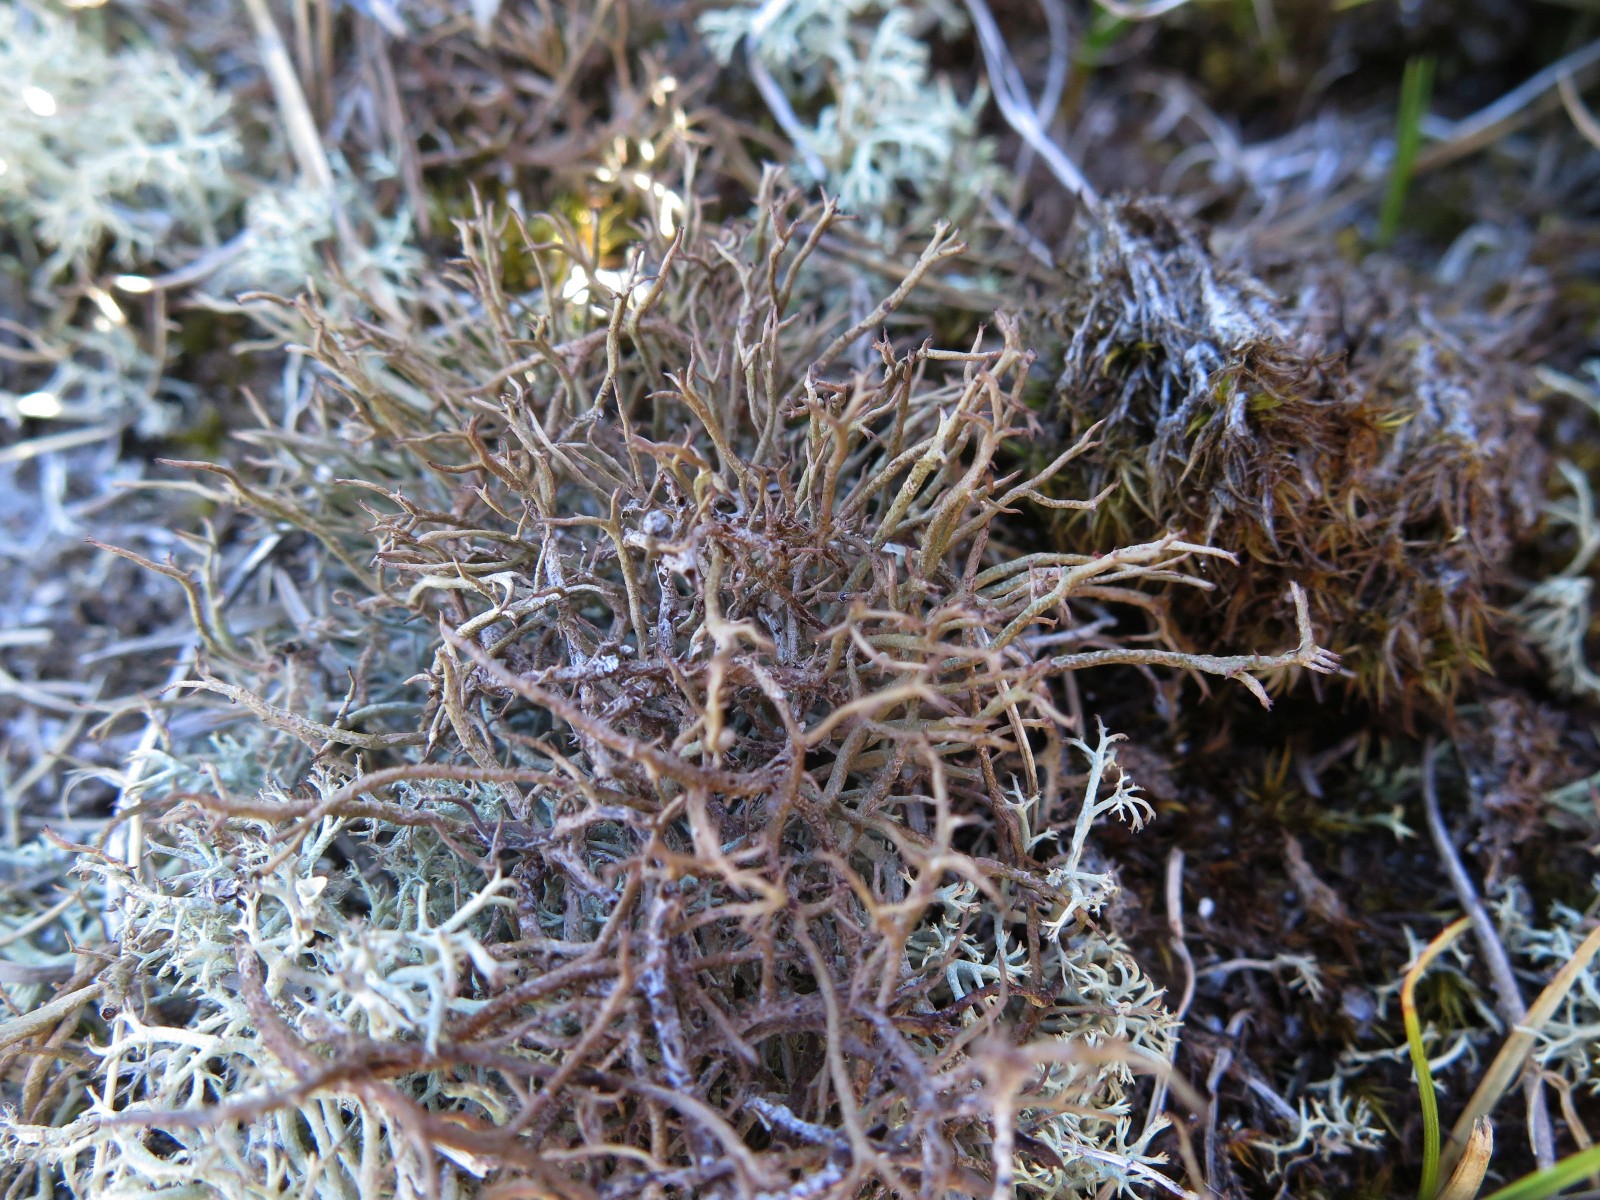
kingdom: Fungi
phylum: Ascomycota
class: Lecanoromycetes
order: Lecanorales
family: Cladoniaceae
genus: Cladonia
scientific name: Cladonia furcata
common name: kløftet bægerlav
